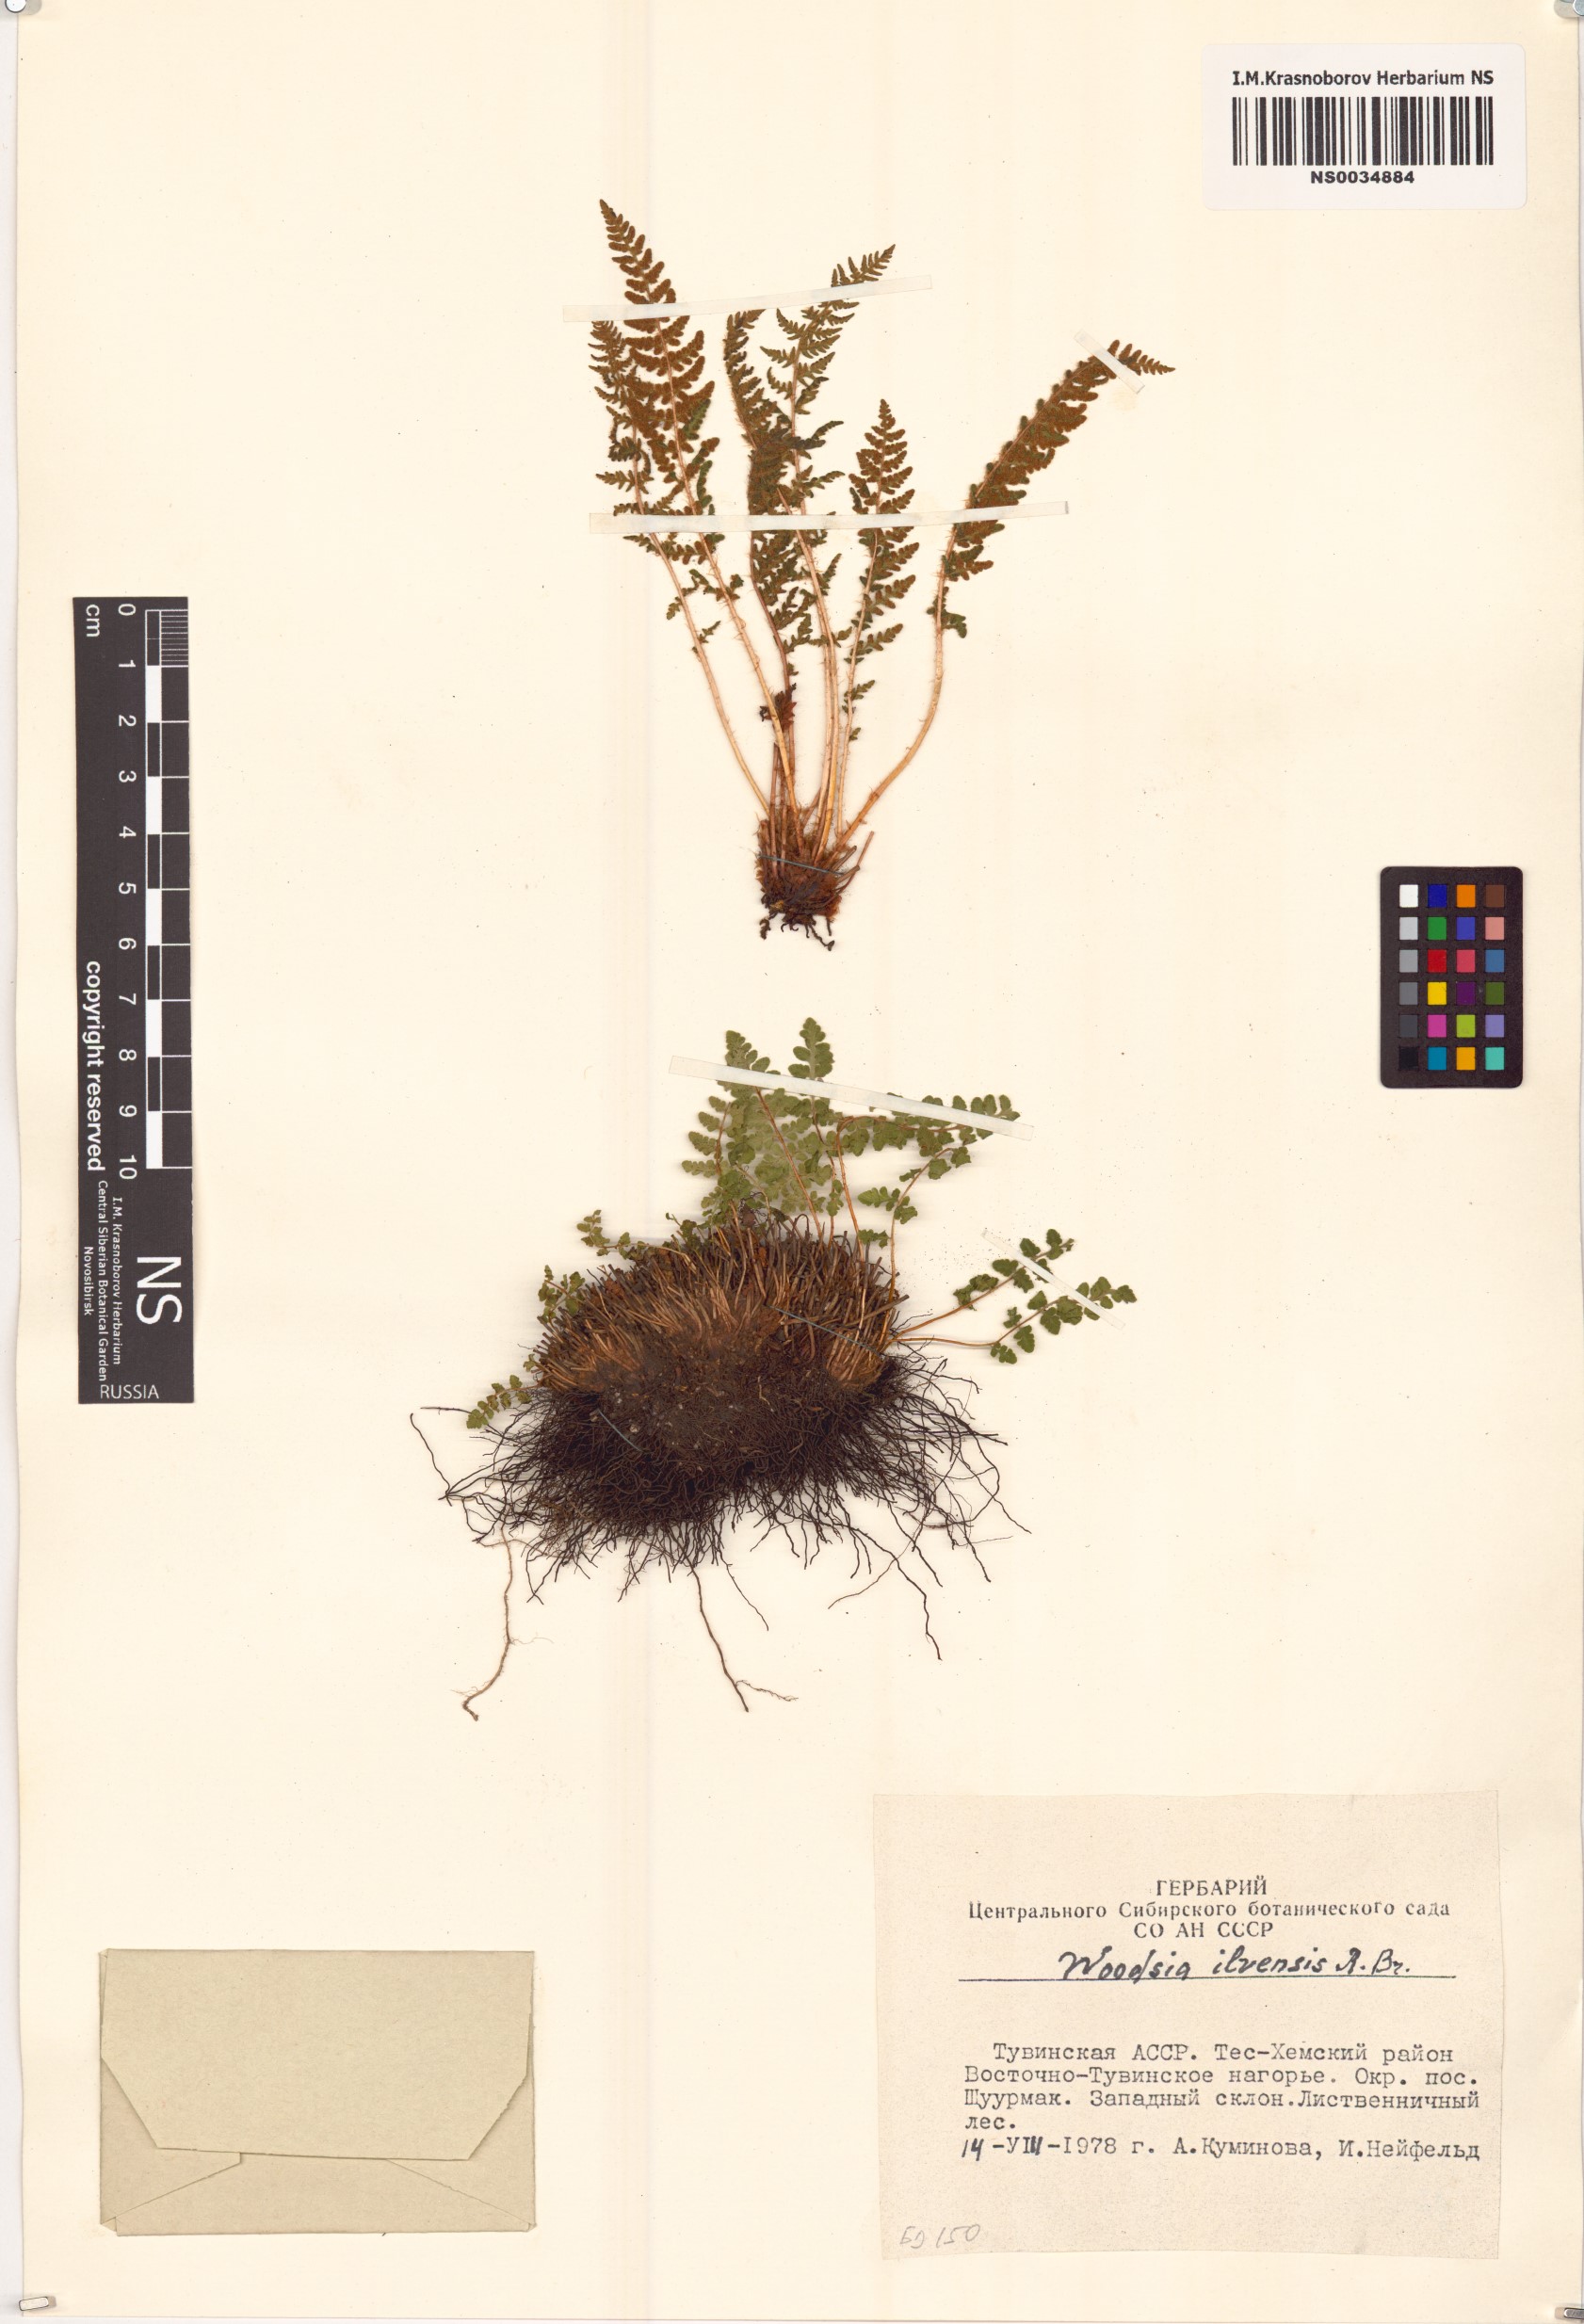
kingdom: Plantae
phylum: Tracheophyta
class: Polypodiopsida
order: Polypodiales
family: Woodsiaceae
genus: Woodsia
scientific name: Woodsia ilvensis
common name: Fragrant woodsia
